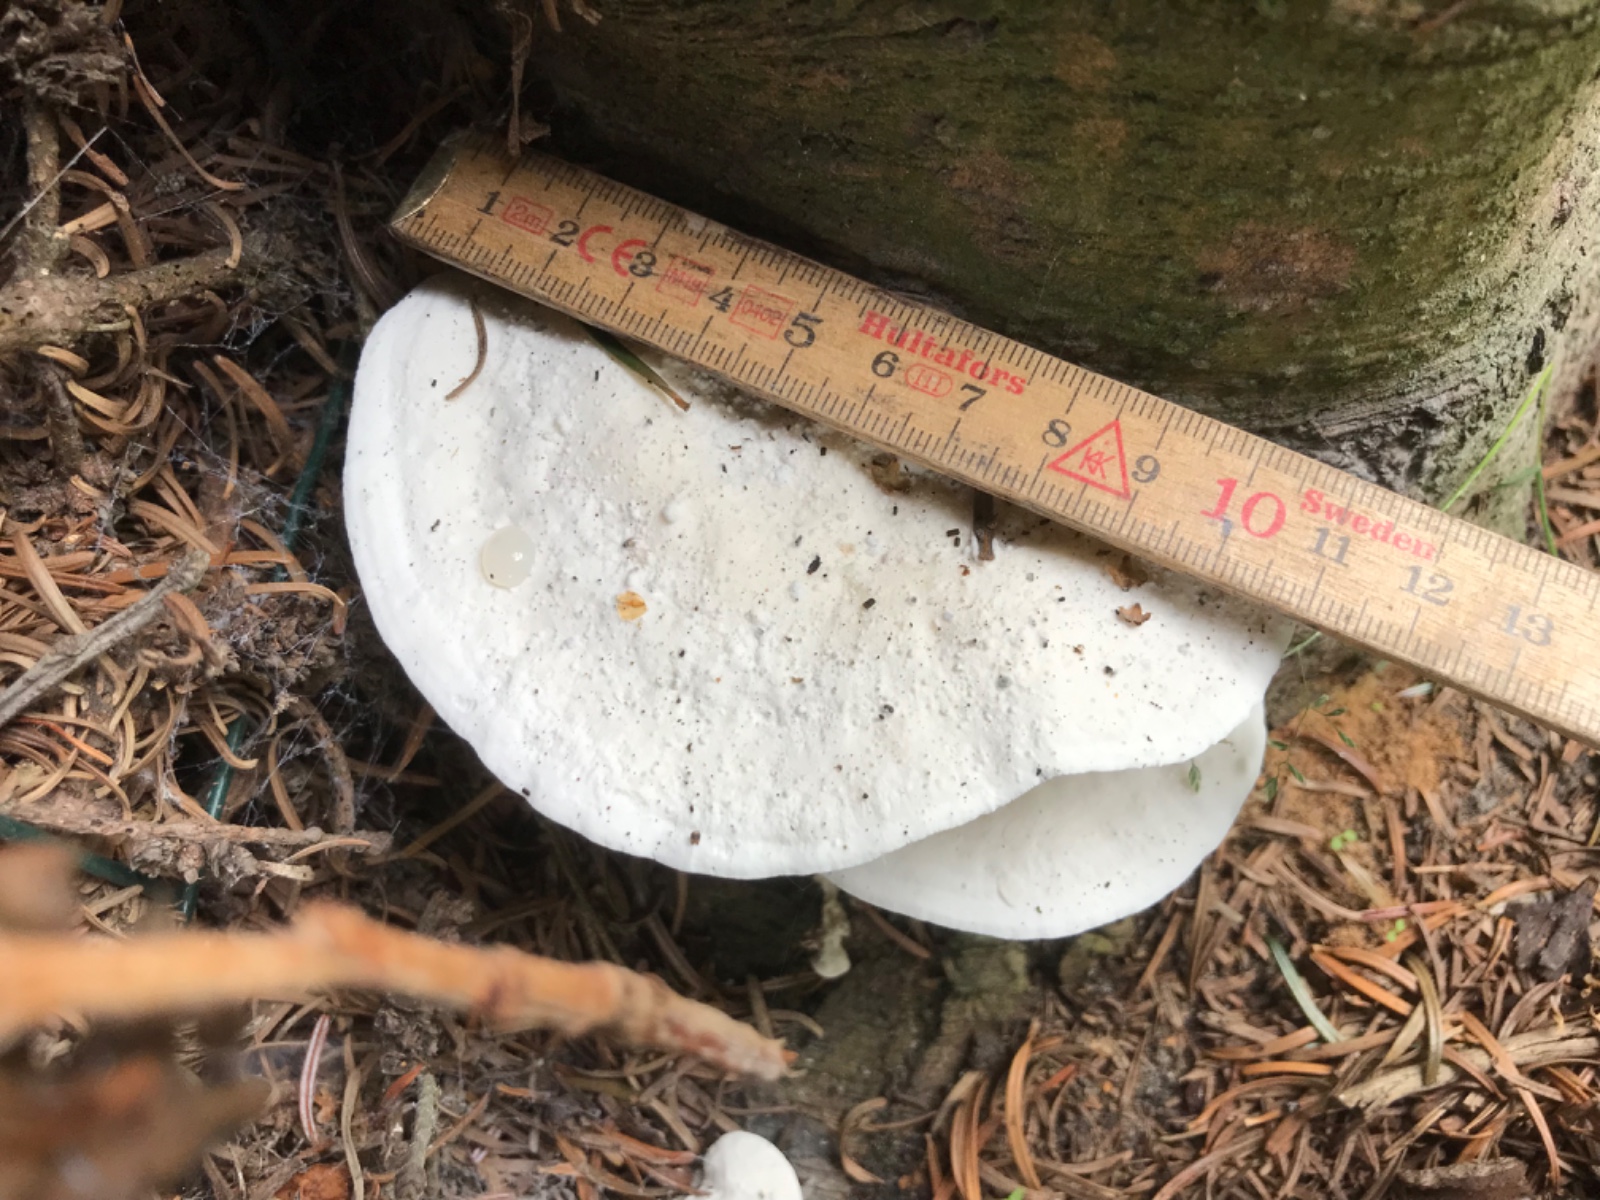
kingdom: Fungi
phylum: Basidiomycota
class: Agaricomycetes
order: Polyporales
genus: Amaropostia
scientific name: Amaropostia stiptica
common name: bitter kødporesvamp
